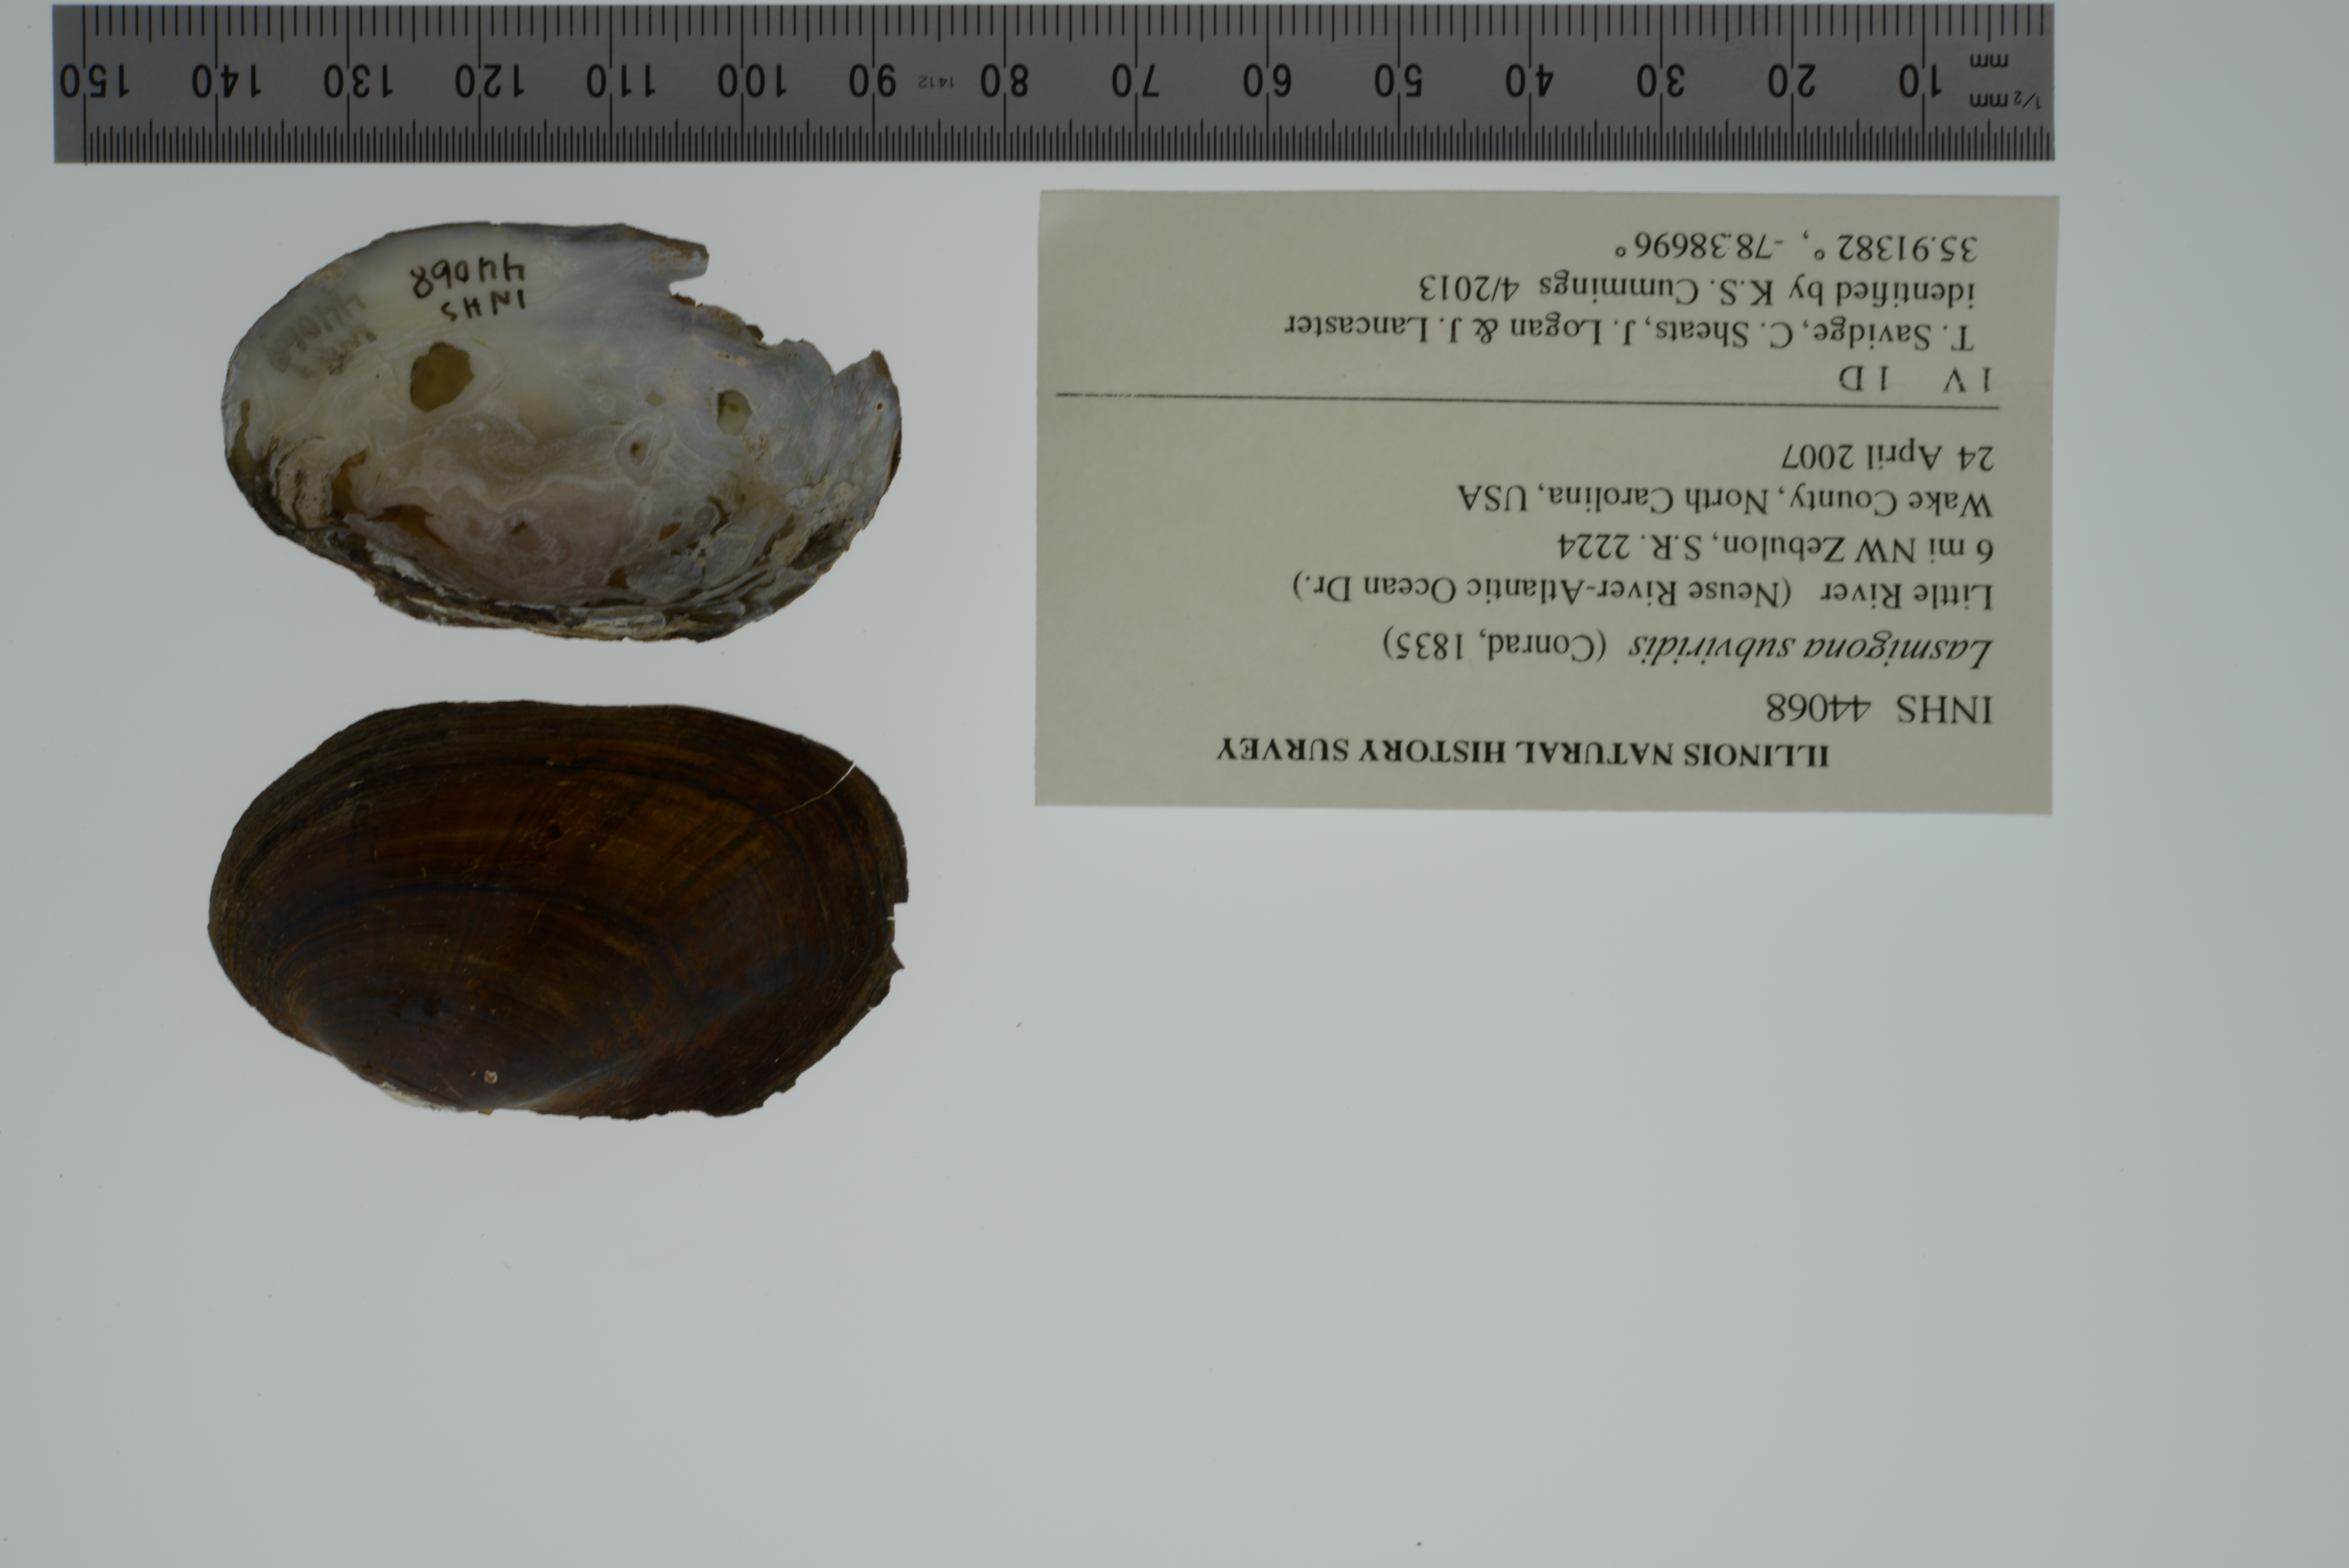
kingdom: Animalia
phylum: Mollusca
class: Bivalvia
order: Unionida
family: Unionidae
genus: Lasmigona
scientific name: Lasmigona subviridis
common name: Green floater
